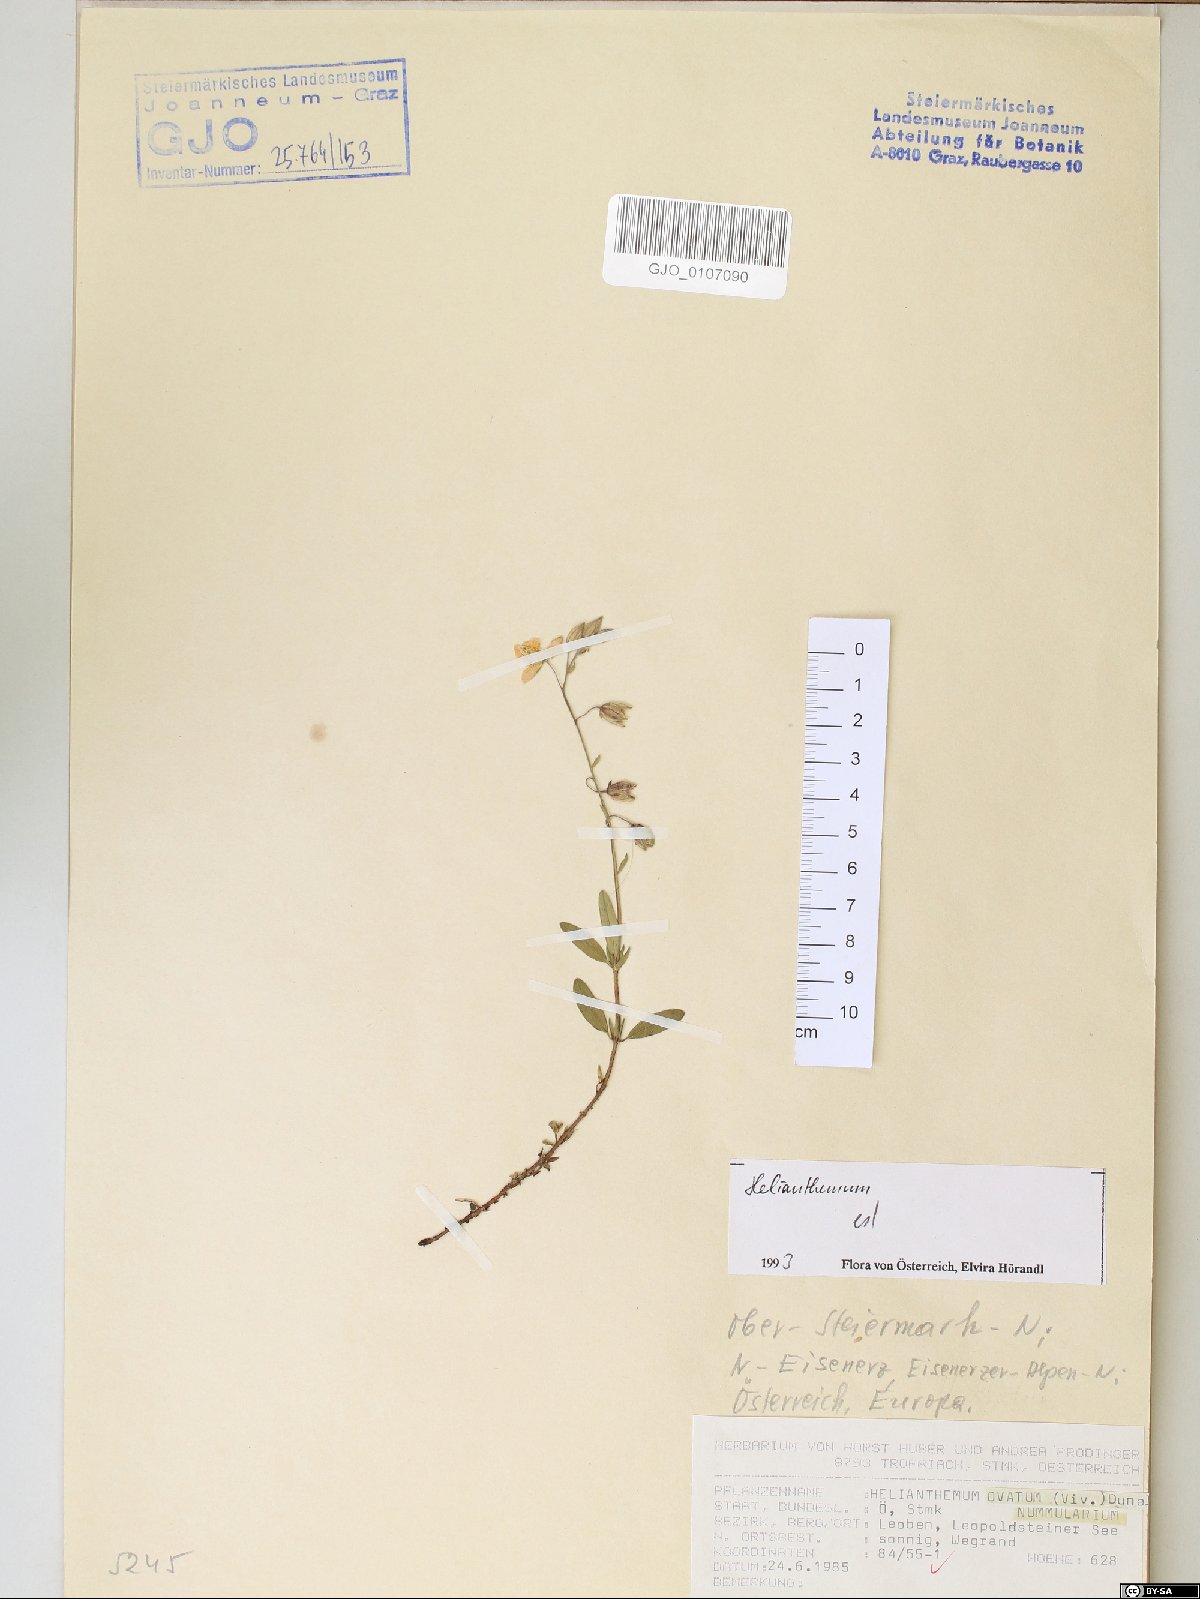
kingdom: Plantae
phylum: Tracheophyta
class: Magnoliopsida
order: Malvales
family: Cistaceae
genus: Helianthemum
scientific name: Helianthemum nummularium
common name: Common rock-rose
